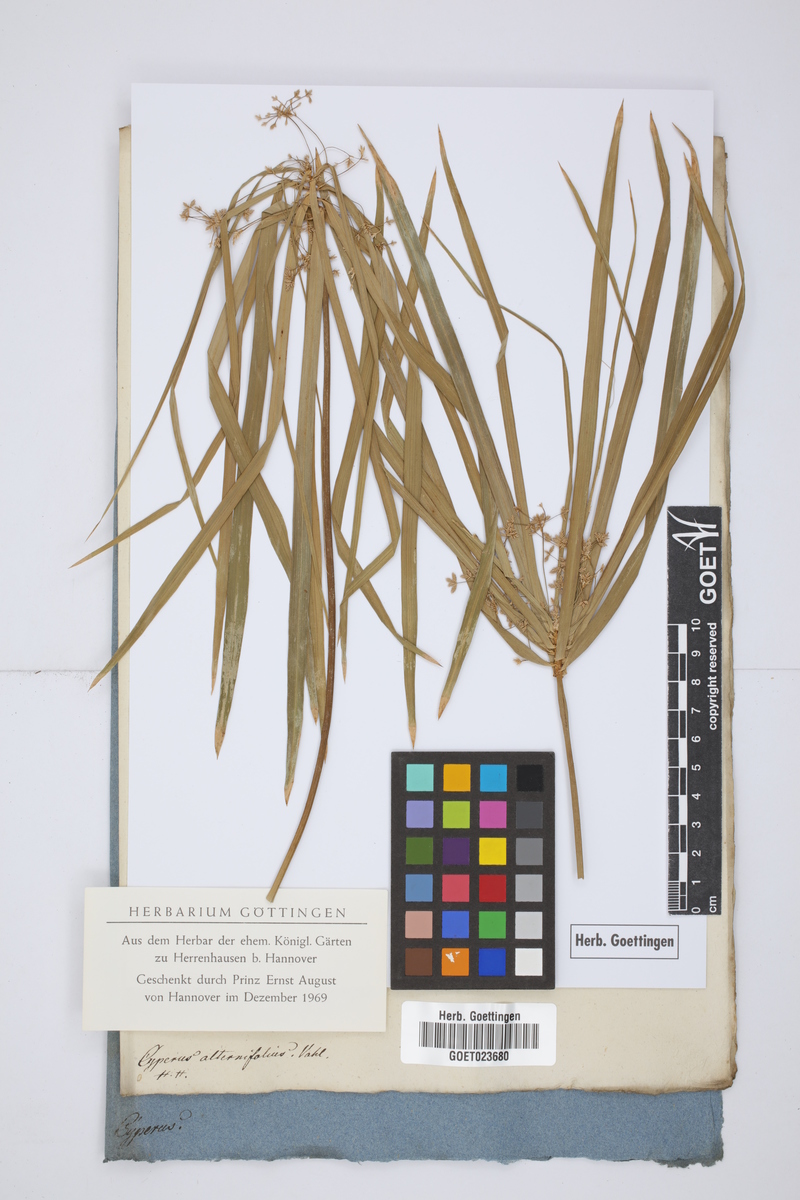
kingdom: Plantae
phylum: Tracheophyta
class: Liliopsida
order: Poales
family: Cyperaceae
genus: Cyperus
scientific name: Cyperus alternifolius
